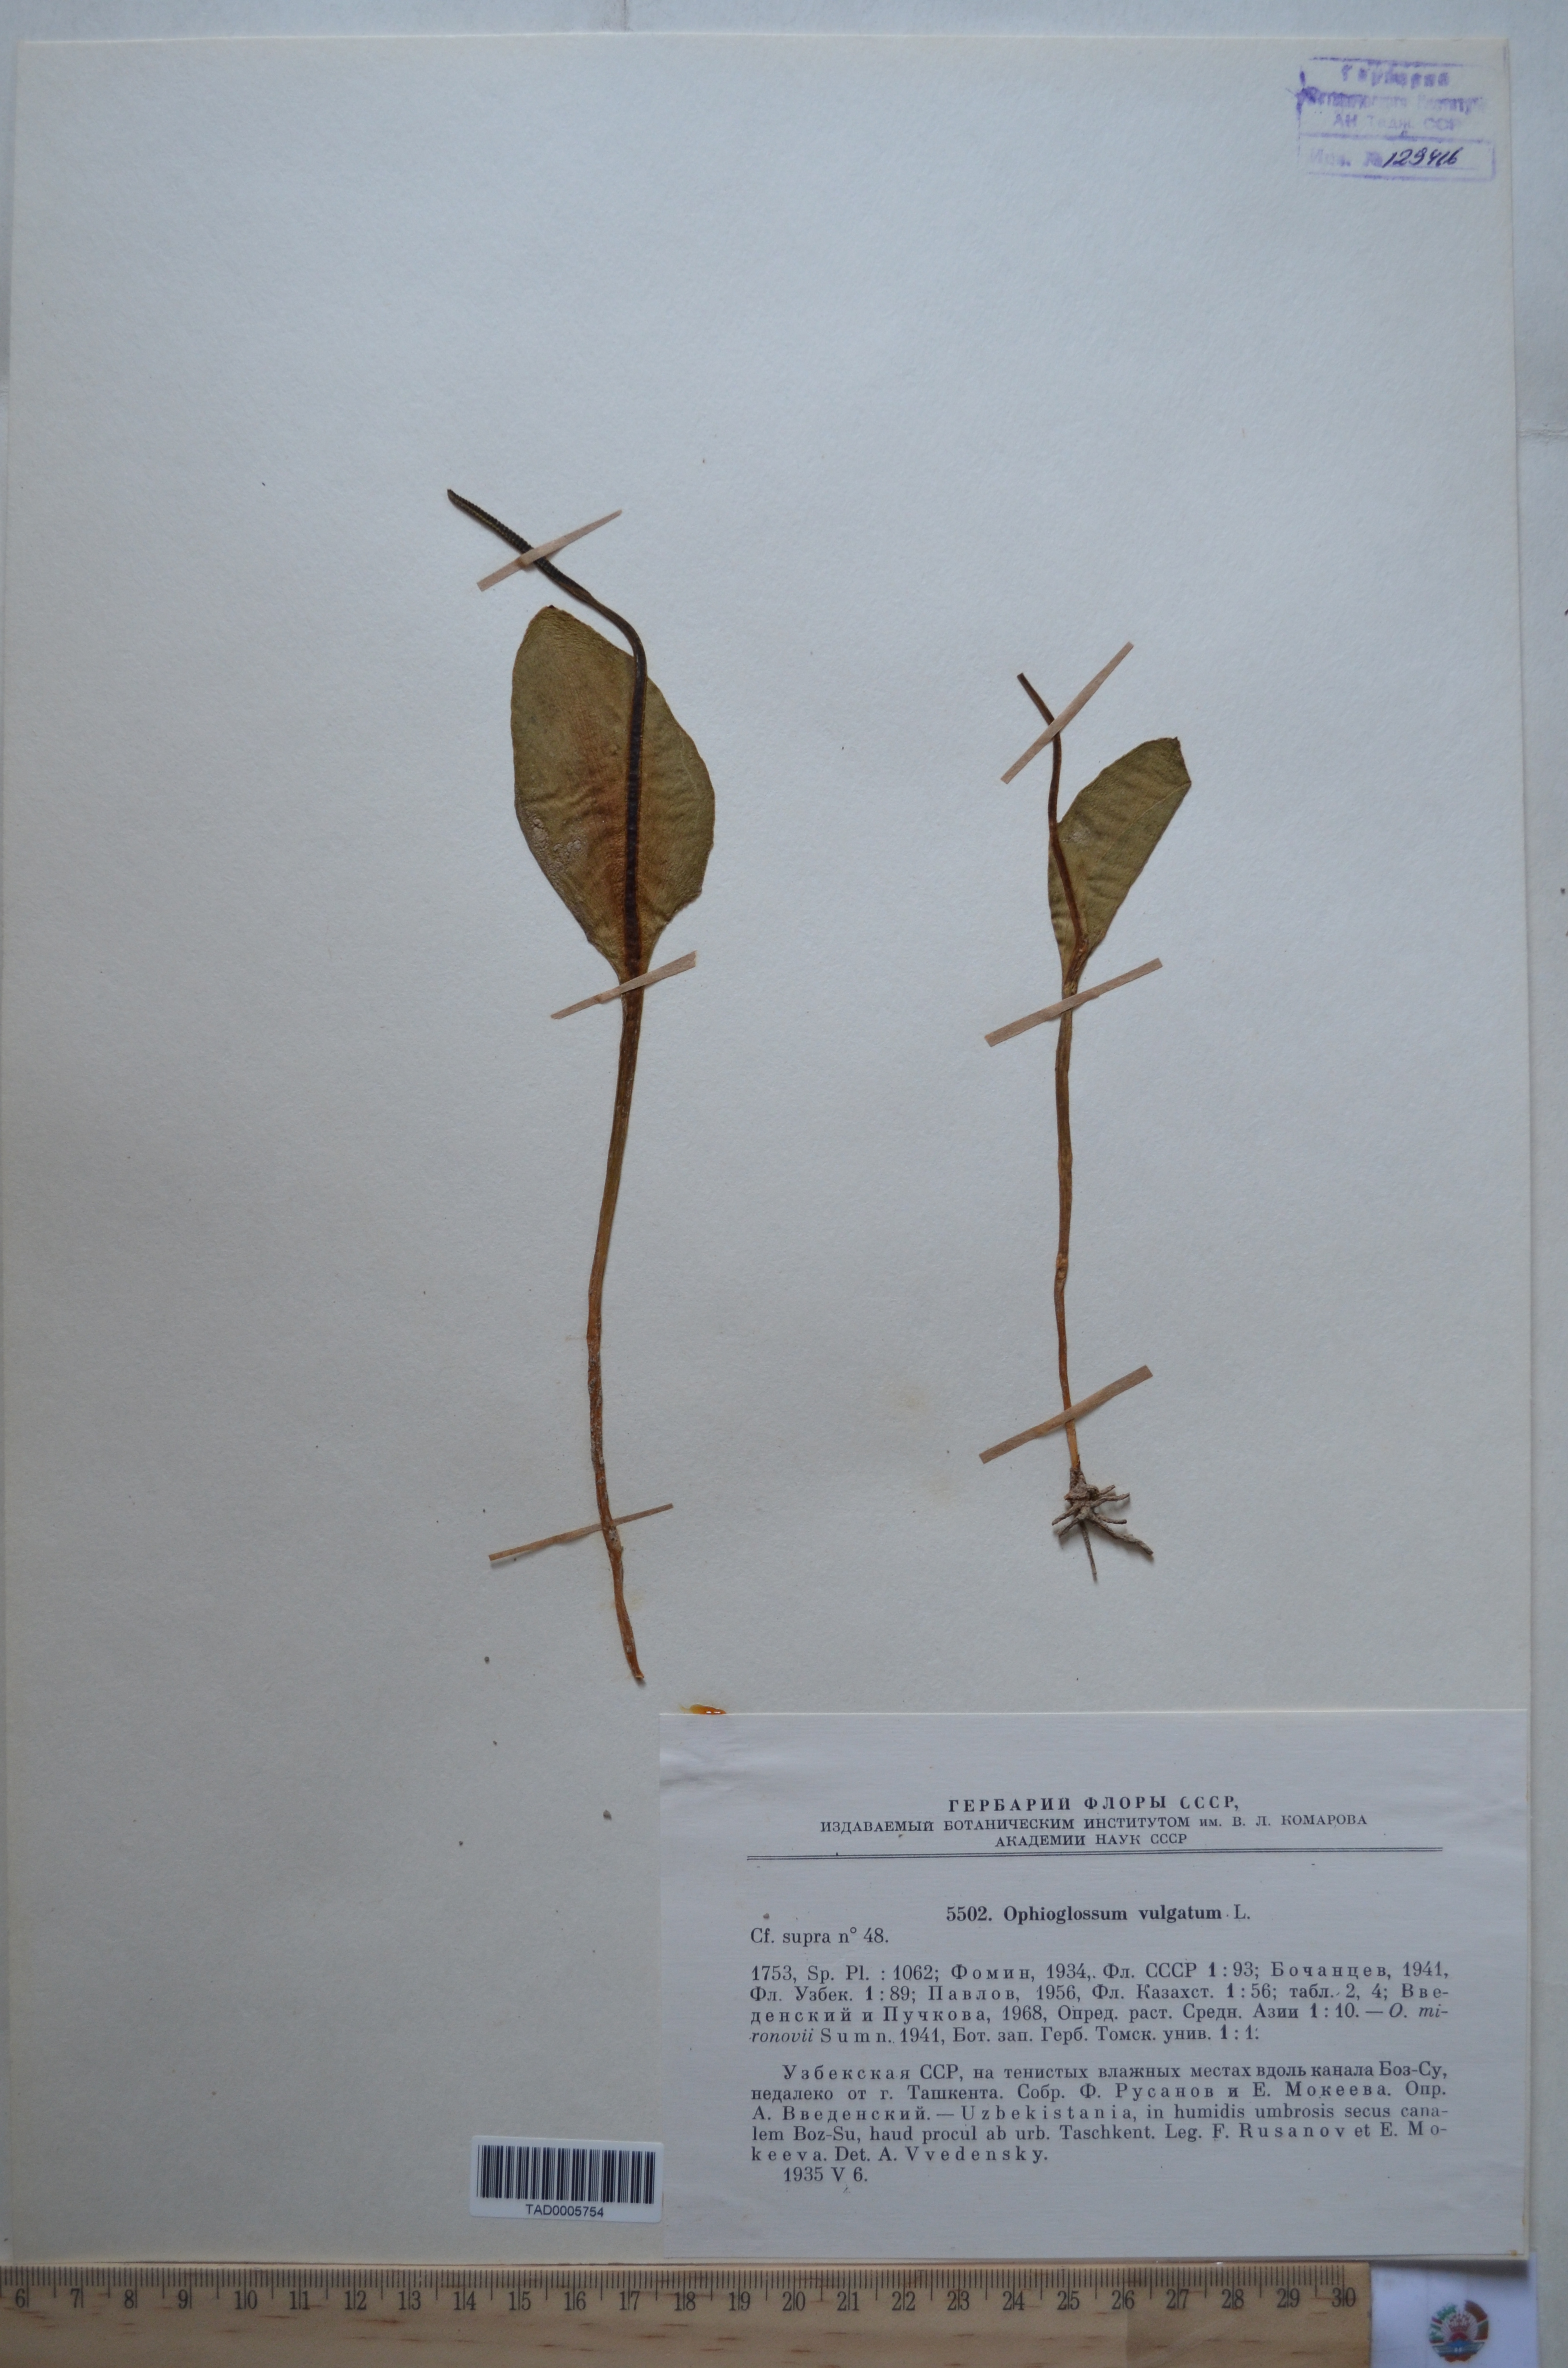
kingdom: Plantae
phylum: Tracheophyta
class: Polypodiopsida
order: Ophioglossales
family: Ophioglossaceae
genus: Ophioglossum
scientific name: Ophioglossum vulgatum
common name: Adder's-tongue
